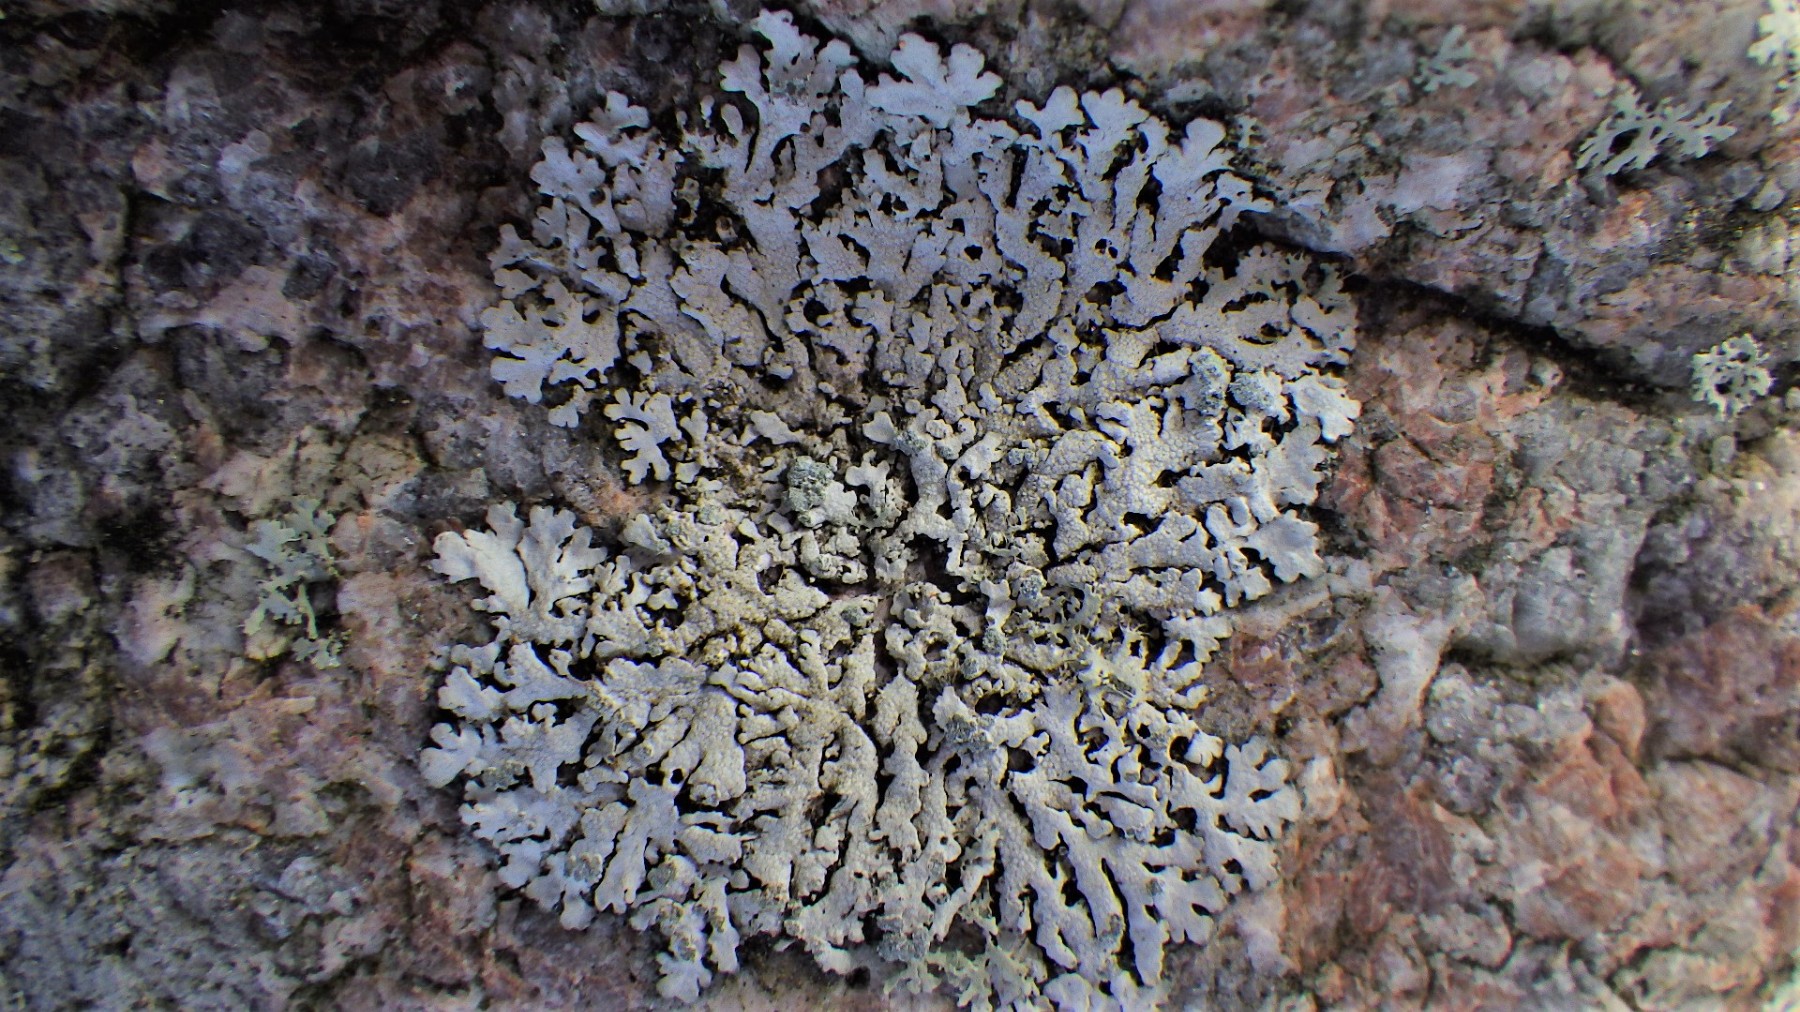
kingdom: Fungi
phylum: Ascomycota
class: Lecanoromycetes
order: Caliciales
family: Physciaceae
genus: Physcia
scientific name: Physcia caesia
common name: blågrå rosetlav
